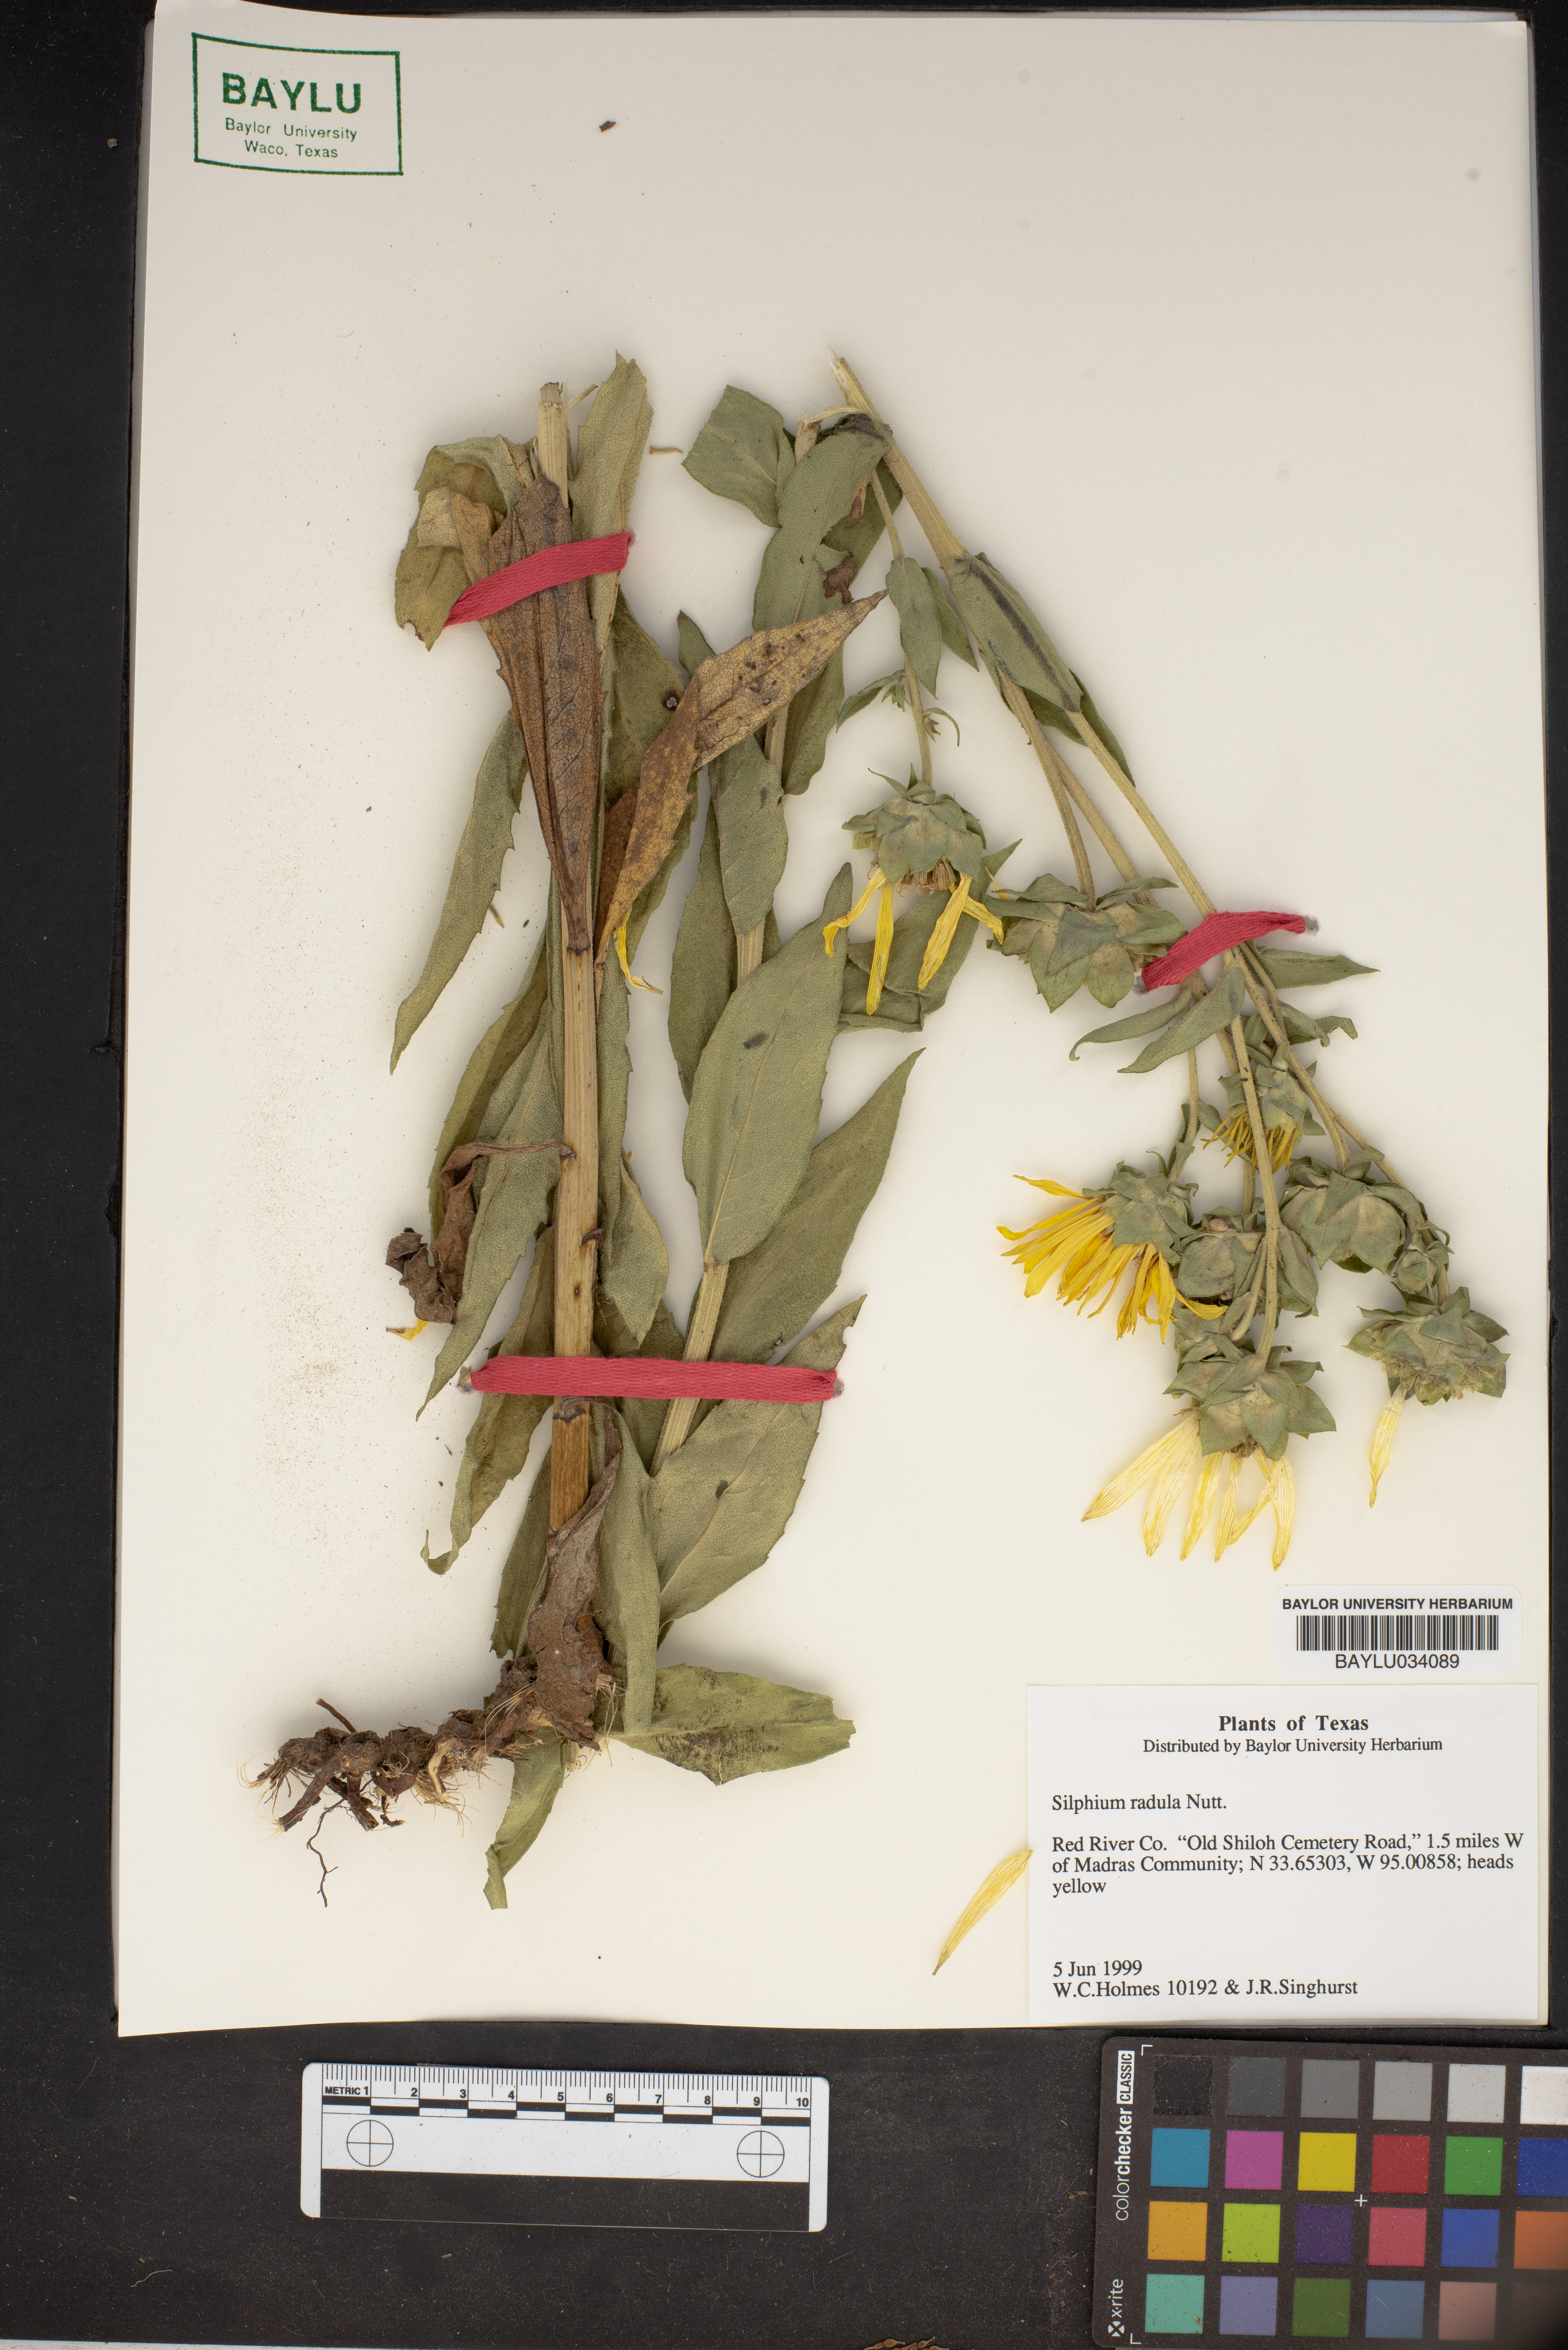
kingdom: Plantae
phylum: Tracheophyta
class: Magnoliopsida
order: Asterales
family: Asteraceae
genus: Silphium
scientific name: Silphium radula
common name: Roughleaf rosinweed
